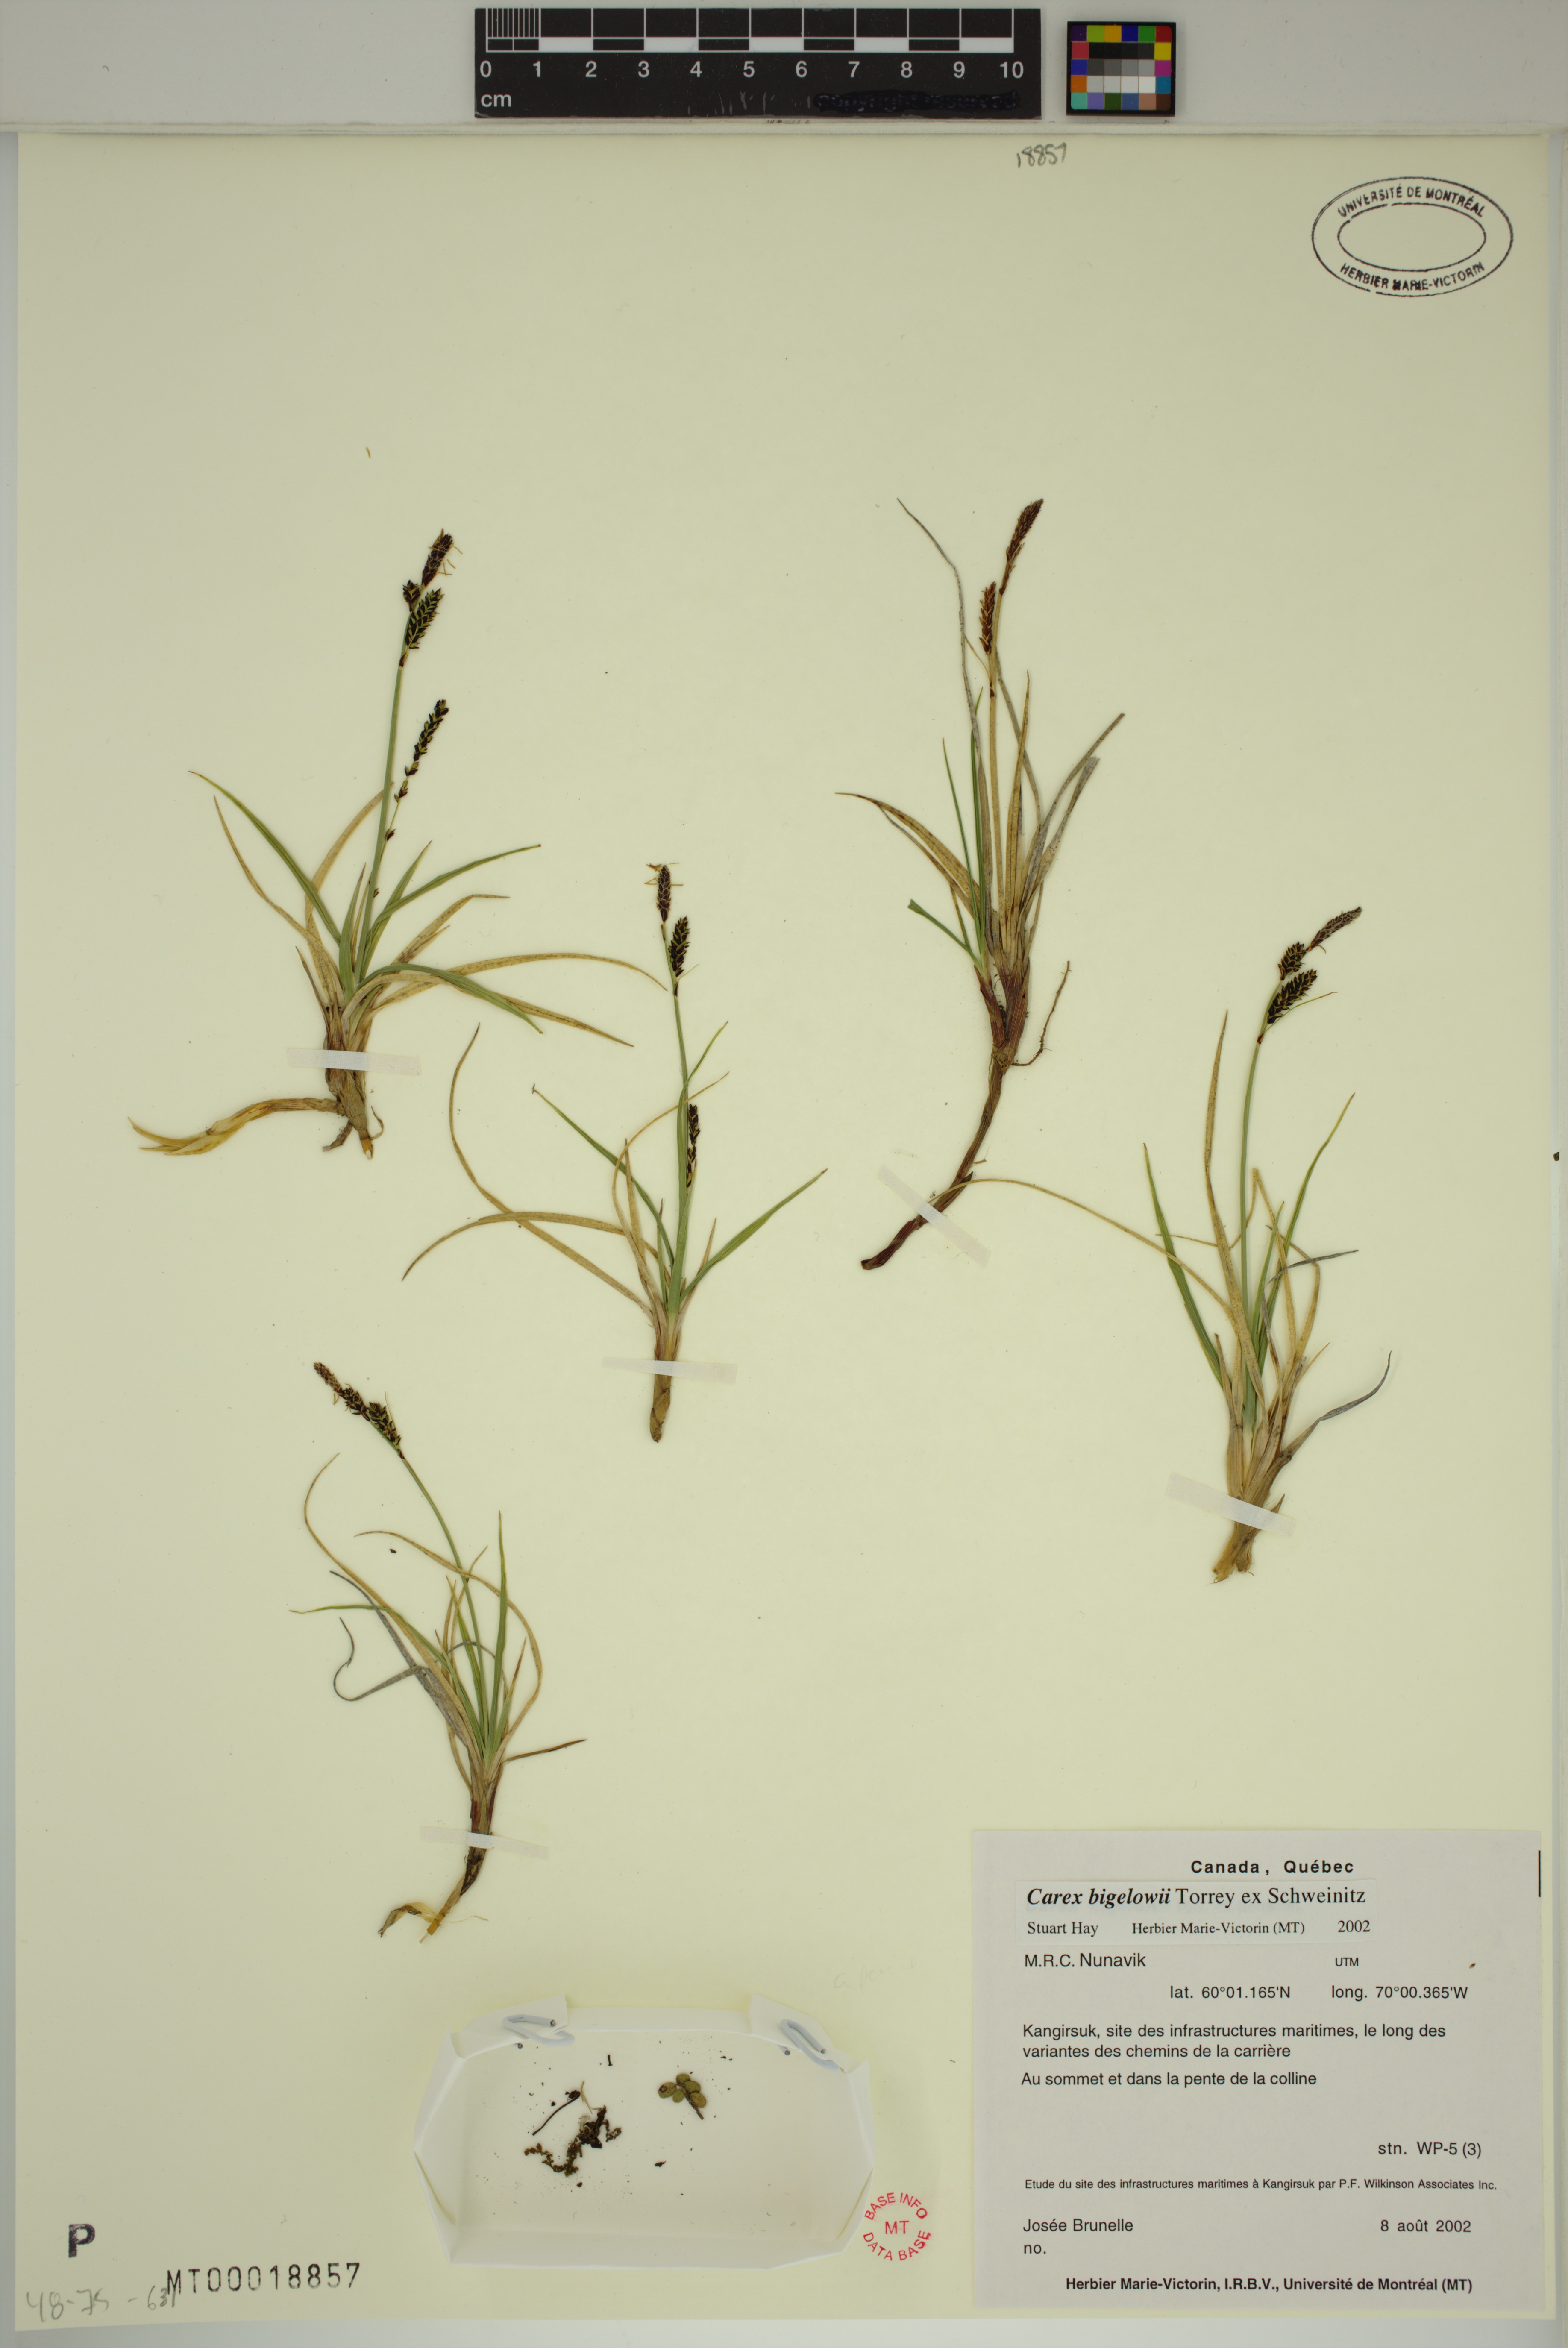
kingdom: Plantae
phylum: Tracheophyta
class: Liliopsida
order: Poales
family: Cyperaceae
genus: Carex
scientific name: Carex bigelowii
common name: Stiff sedge
